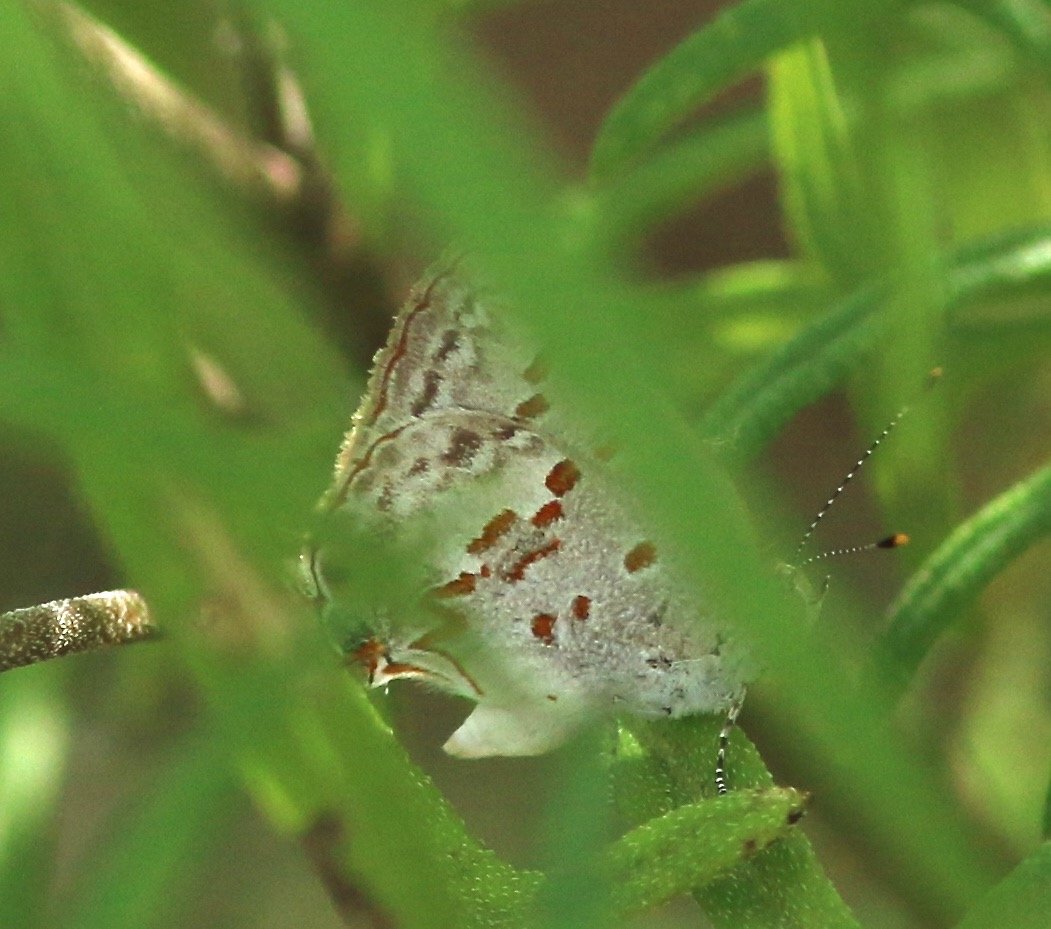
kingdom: Animalia
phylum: Arthropoda
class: Insecta
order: Lepidoptera
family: Lycaenidae
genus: Ministrymon
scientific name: Ministrymon clytie
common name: Clytie Ministreak
